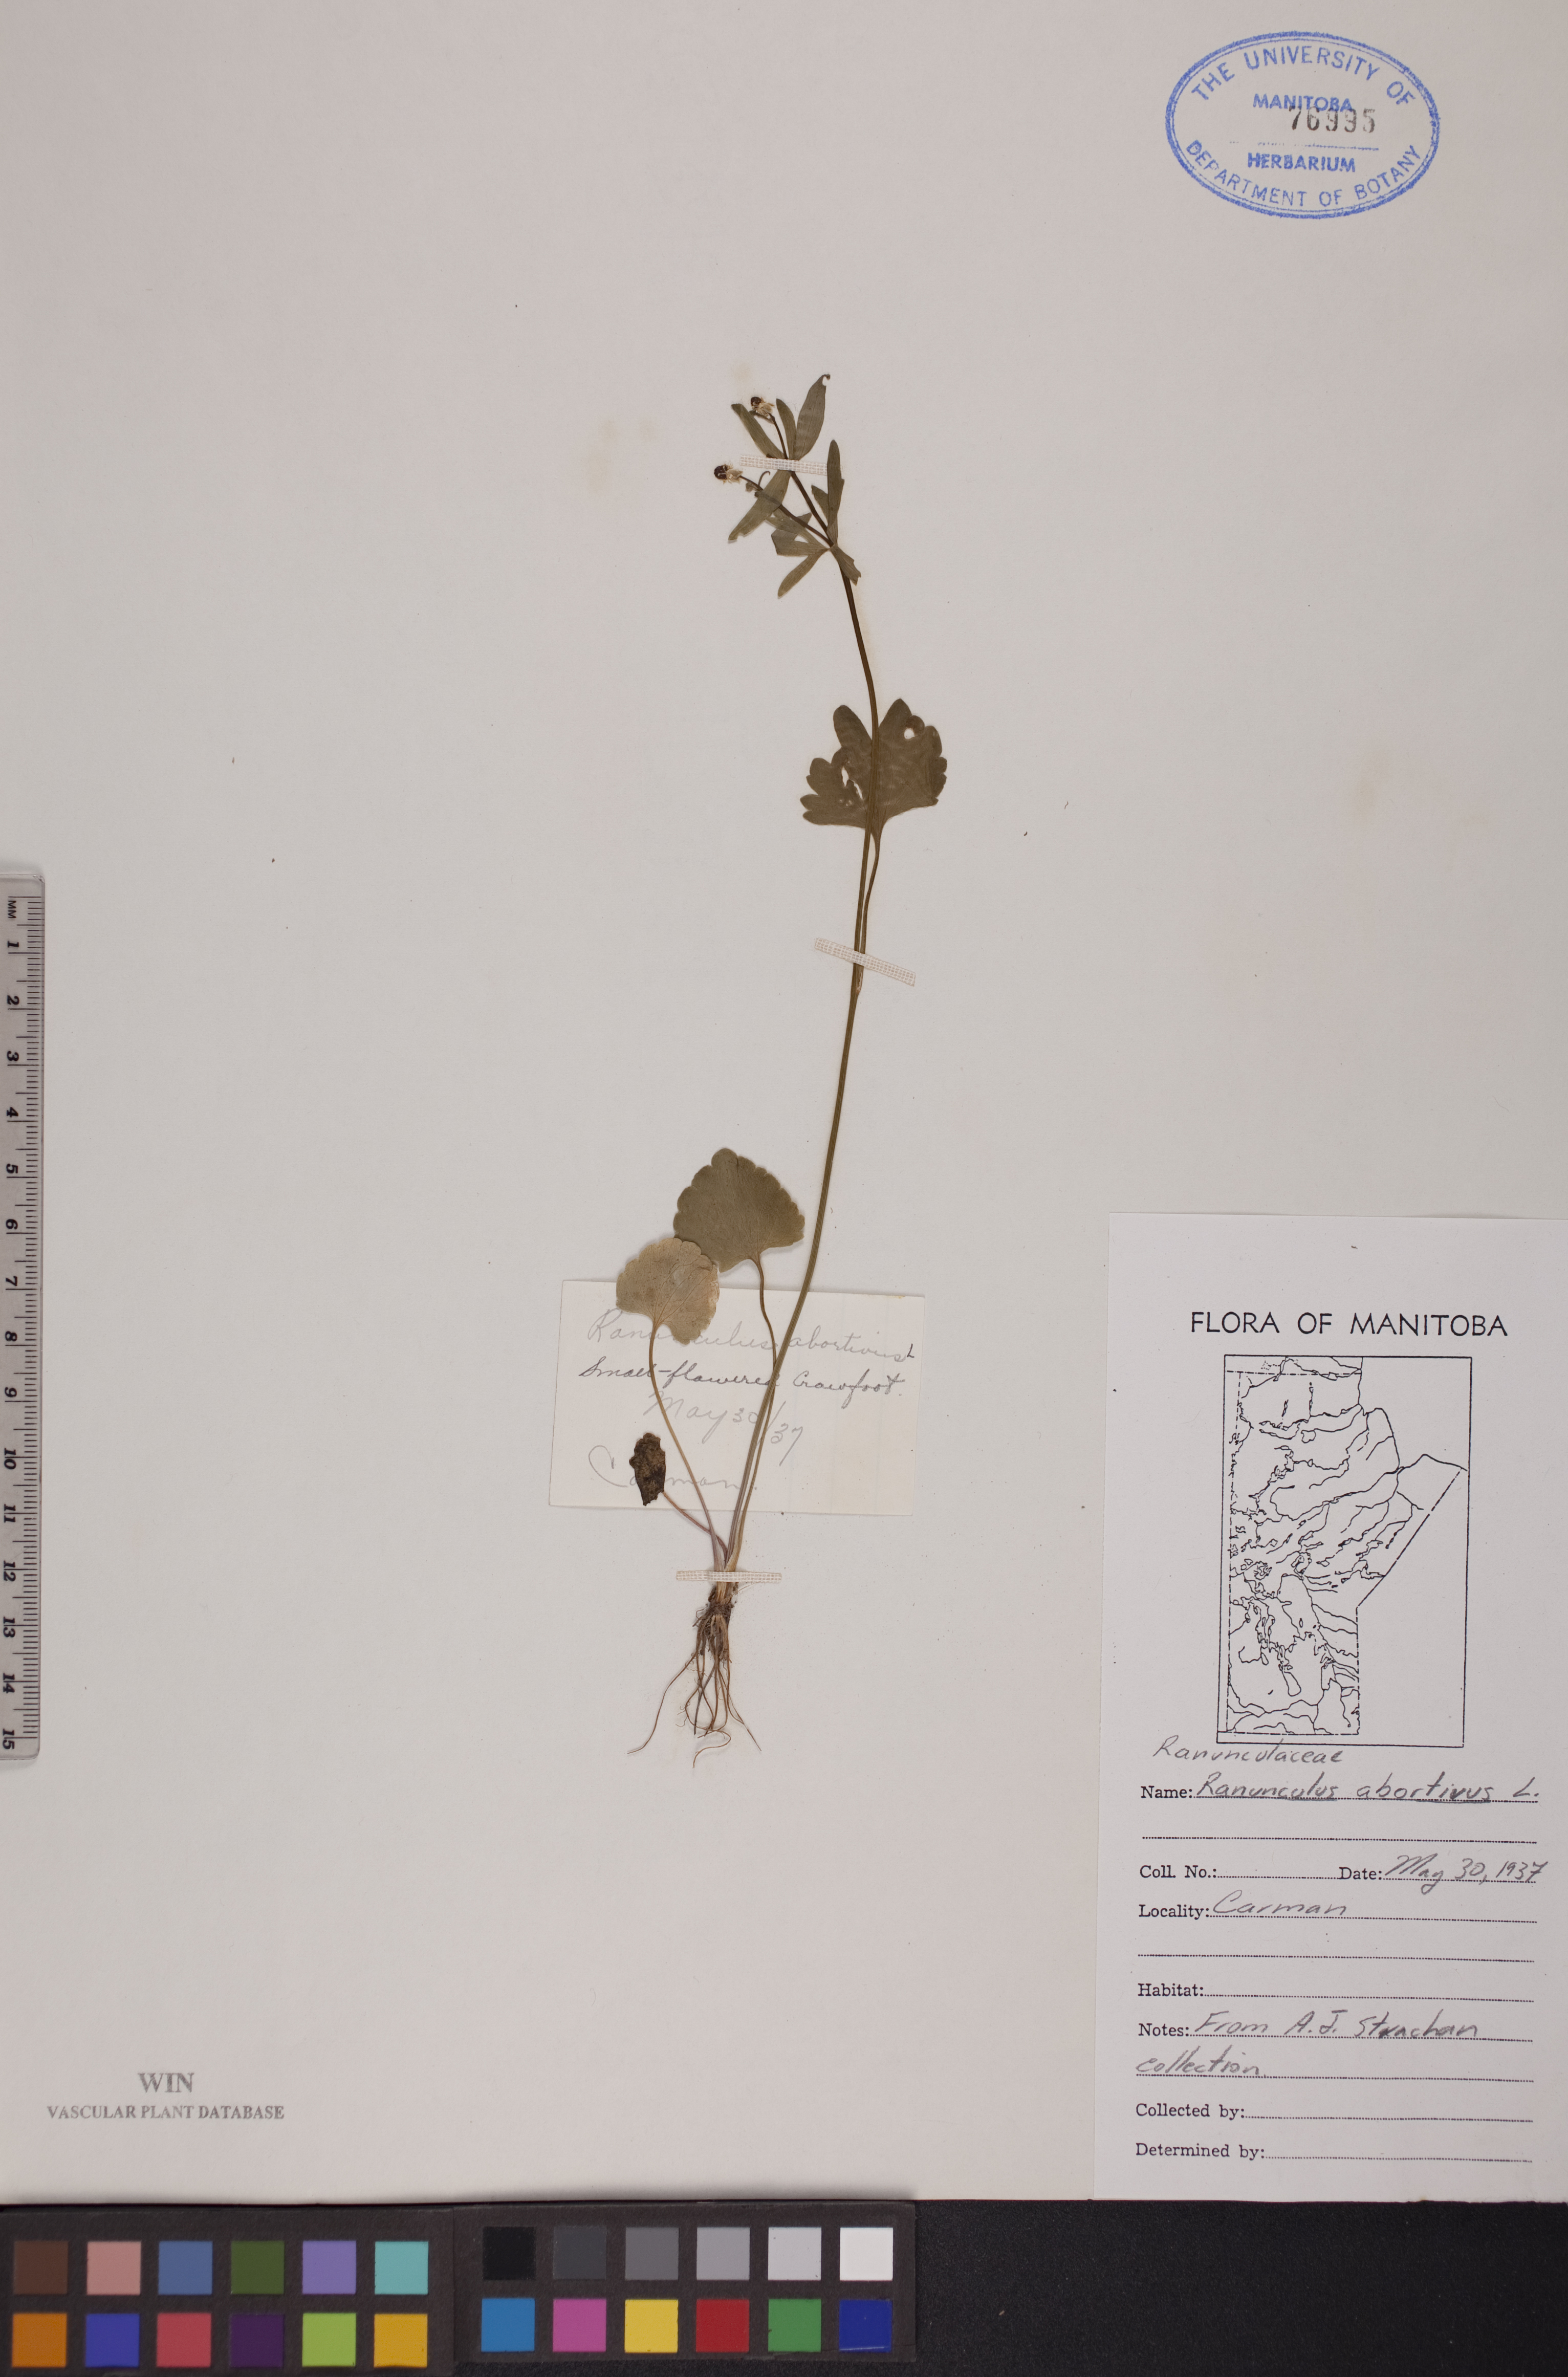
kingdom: Plantae
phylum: Tracheophyta
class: Magnoliopsida
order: Ranunculales
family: Ranunculaceae
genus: Ranunculus
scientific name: Ranunculus abortivus
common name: Early wood buttercup
